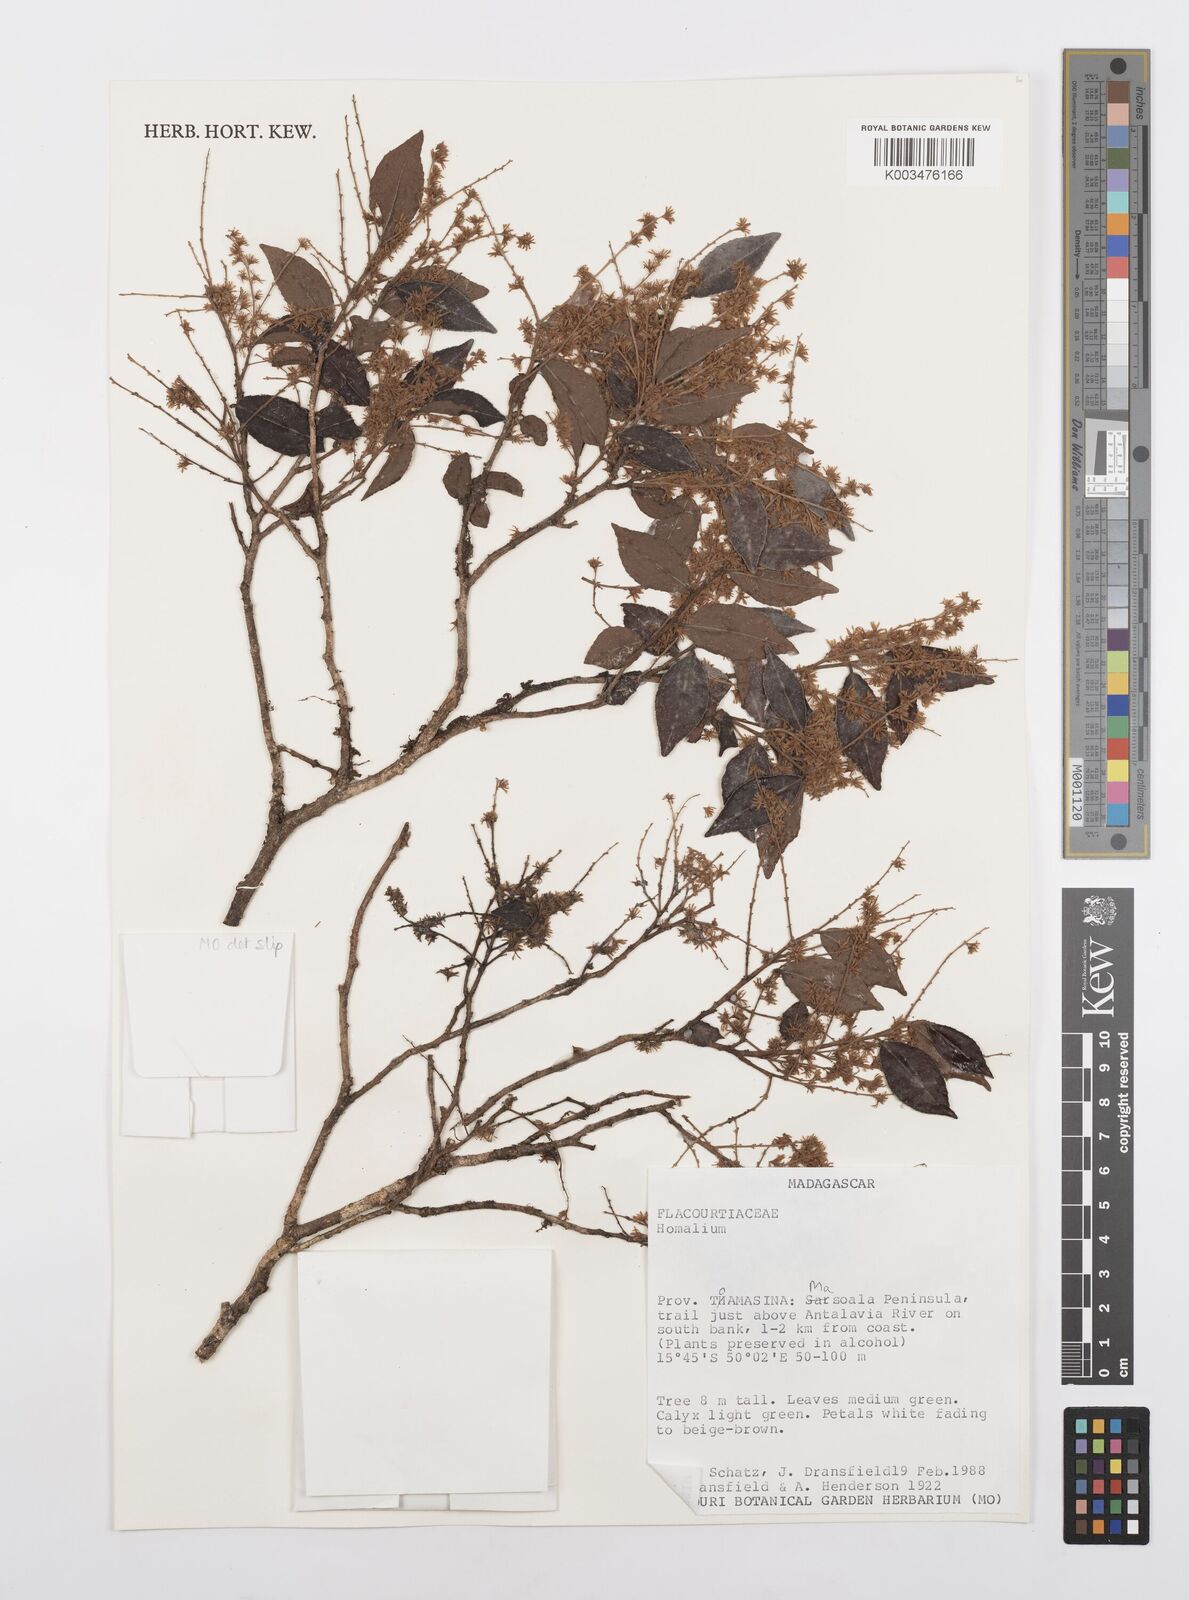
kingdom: Plantae
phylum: Tracheophyta
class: Magnoliopsida
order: Malpighiales
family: Salicaceae
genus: Homalium
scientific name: Homalium
